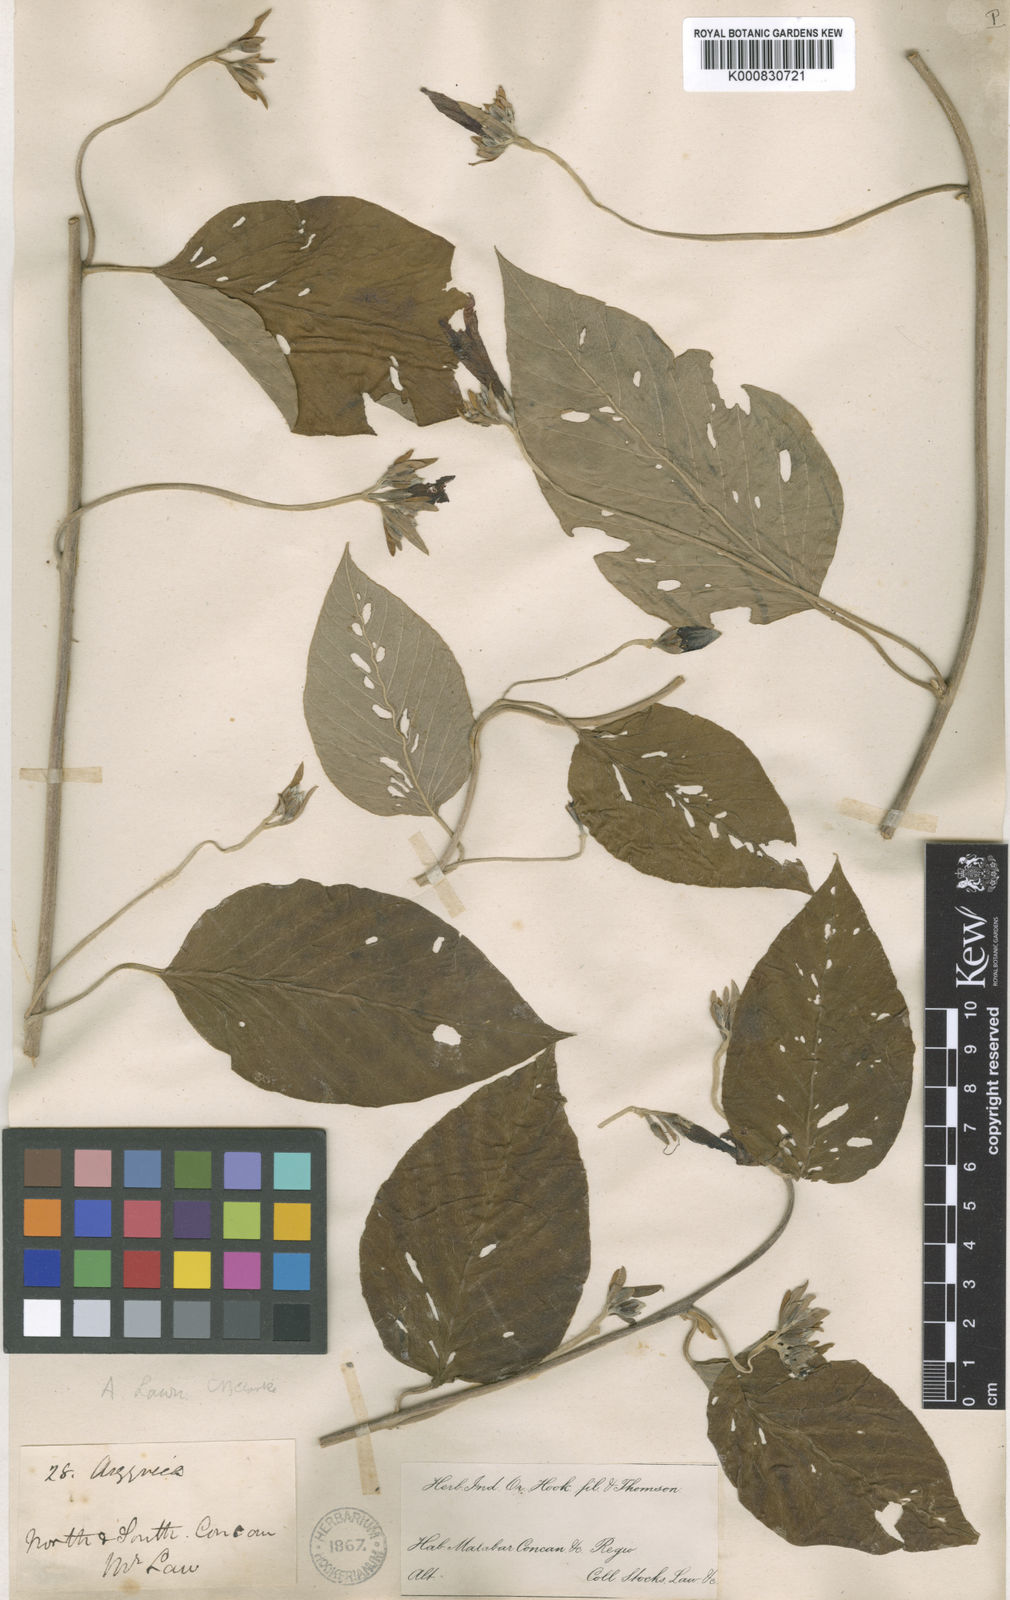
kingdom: Plantae
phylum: Tracheophyta
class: Magnoliopsida
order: Solanales
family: Convolvulaceae
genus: Argyreia
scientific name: Argyreia lawii
